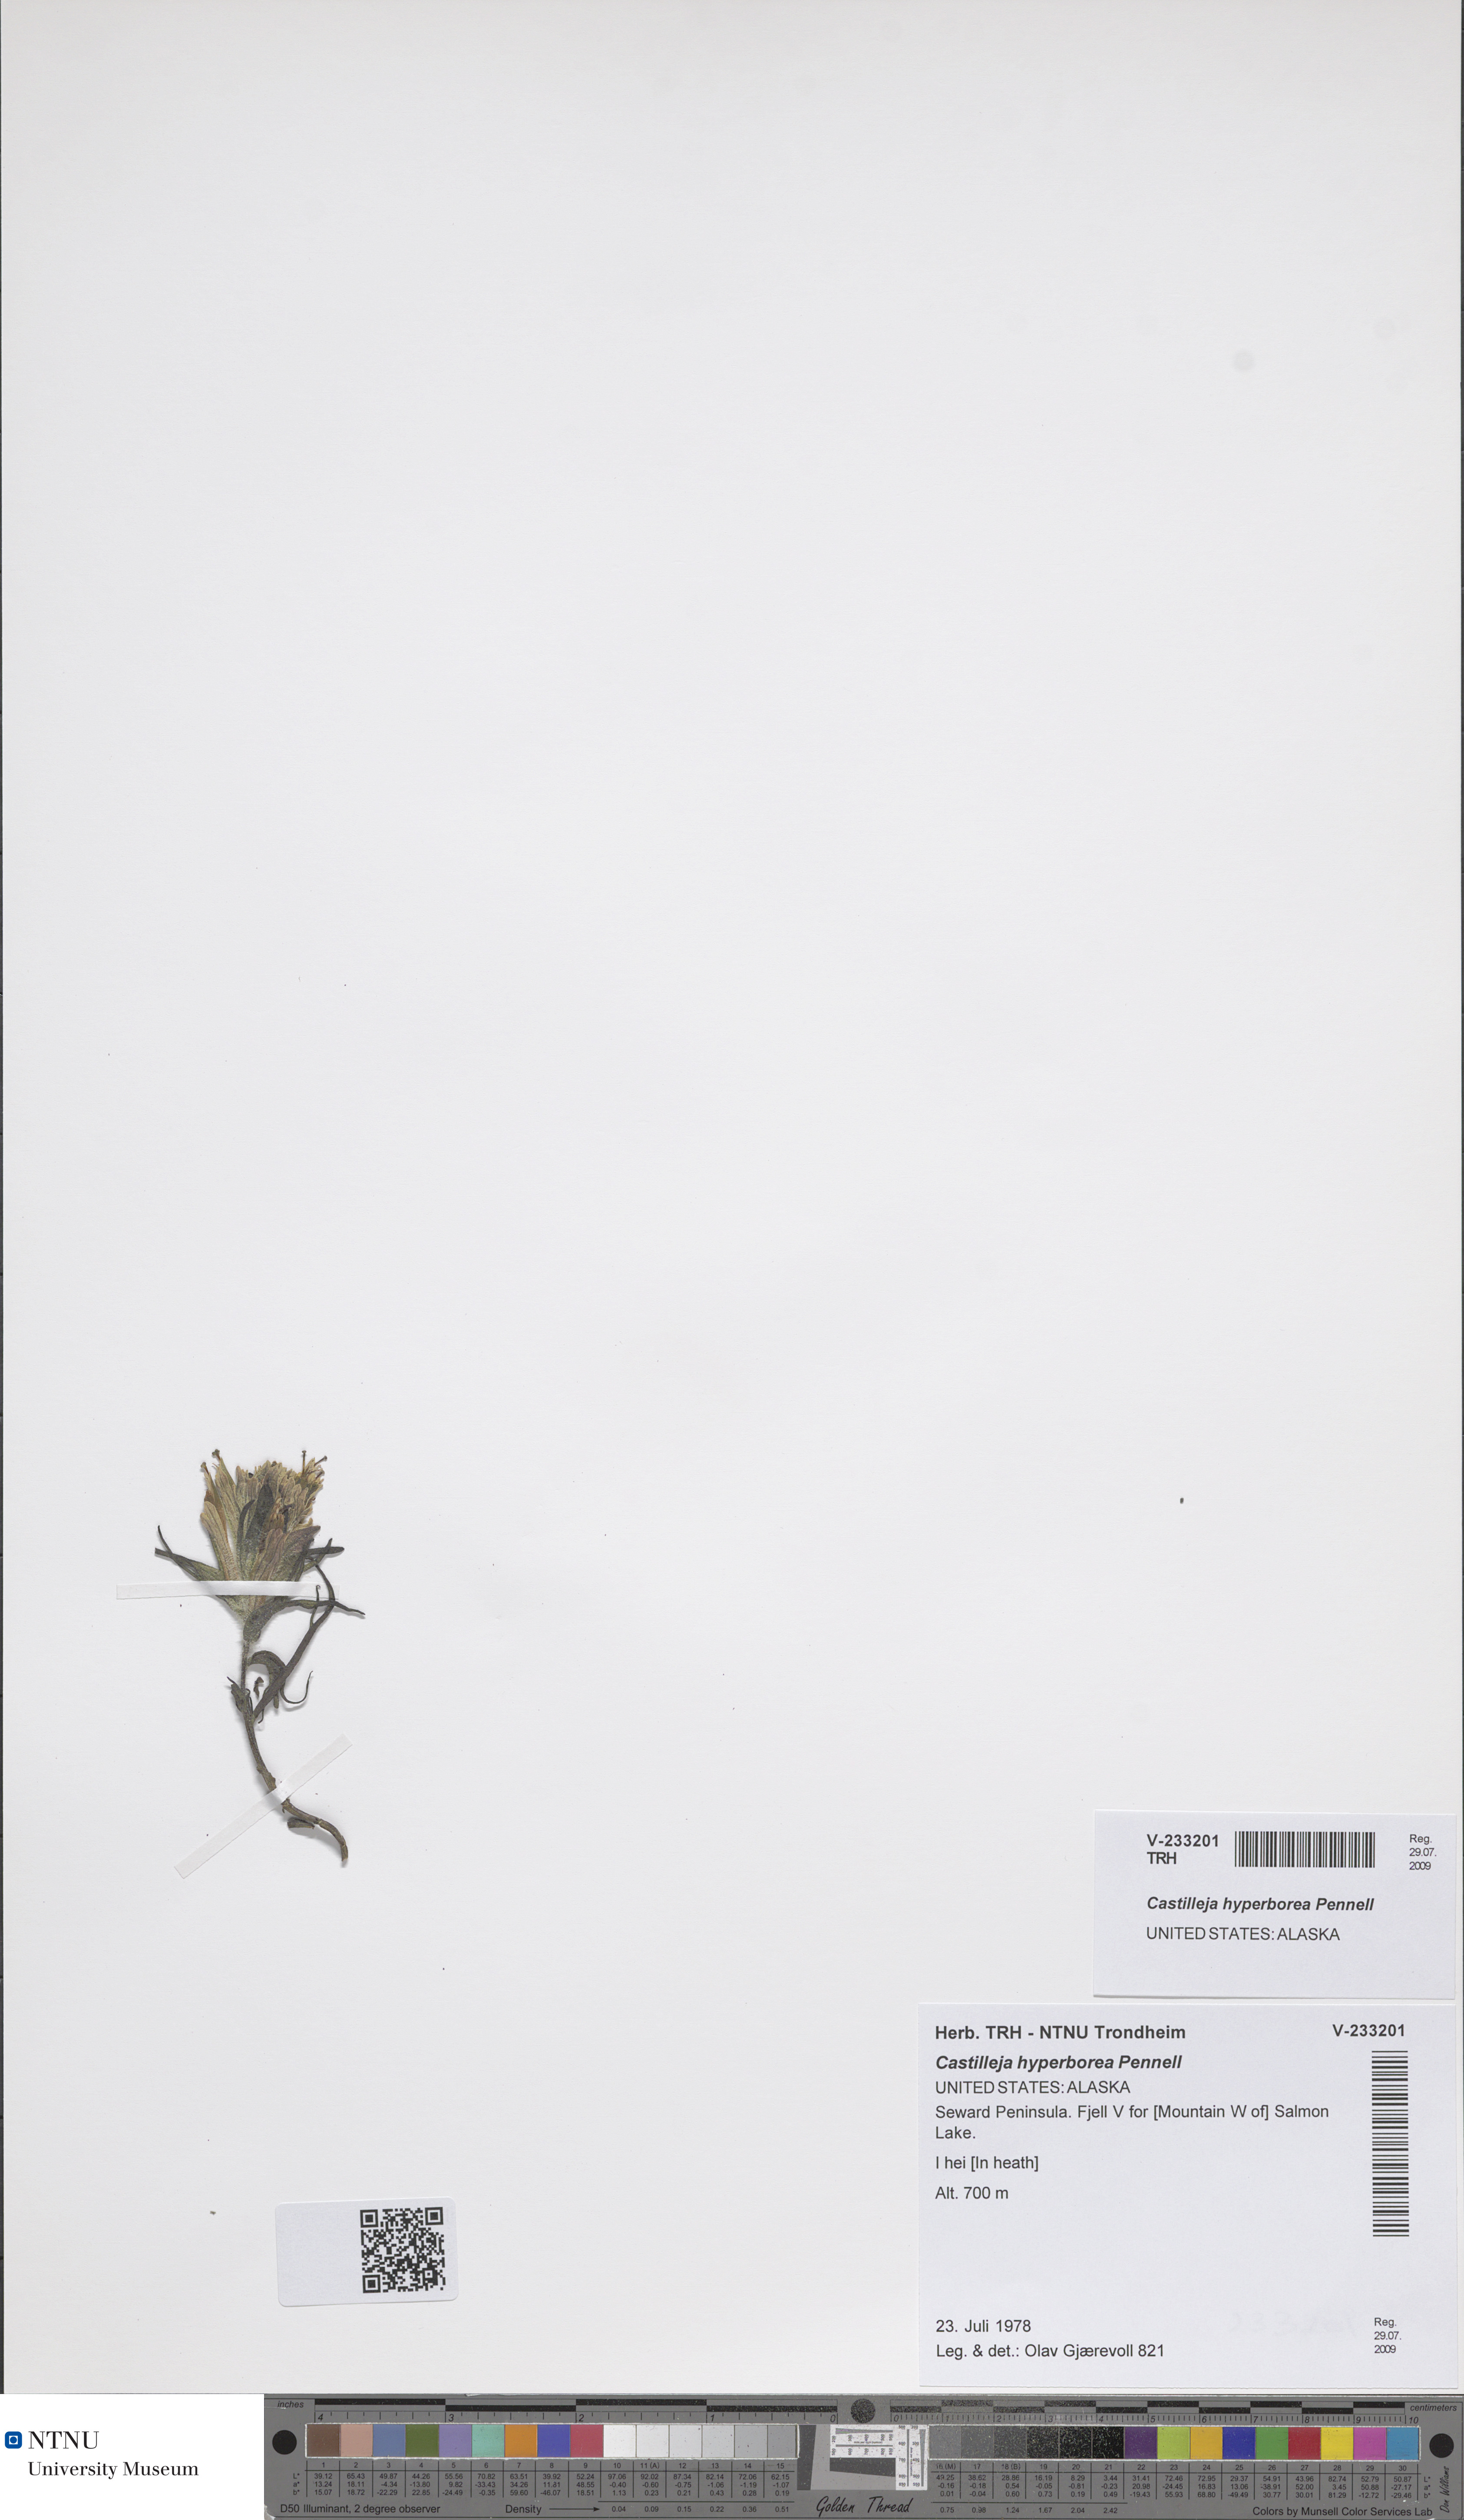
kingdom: Plantae
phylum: Tracheophyta
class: Magnoliopsida
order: Lamiales
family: Orobanchaceae
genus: Castilleja
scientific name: Castilleja hyperborea
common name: Northern paintbrush
